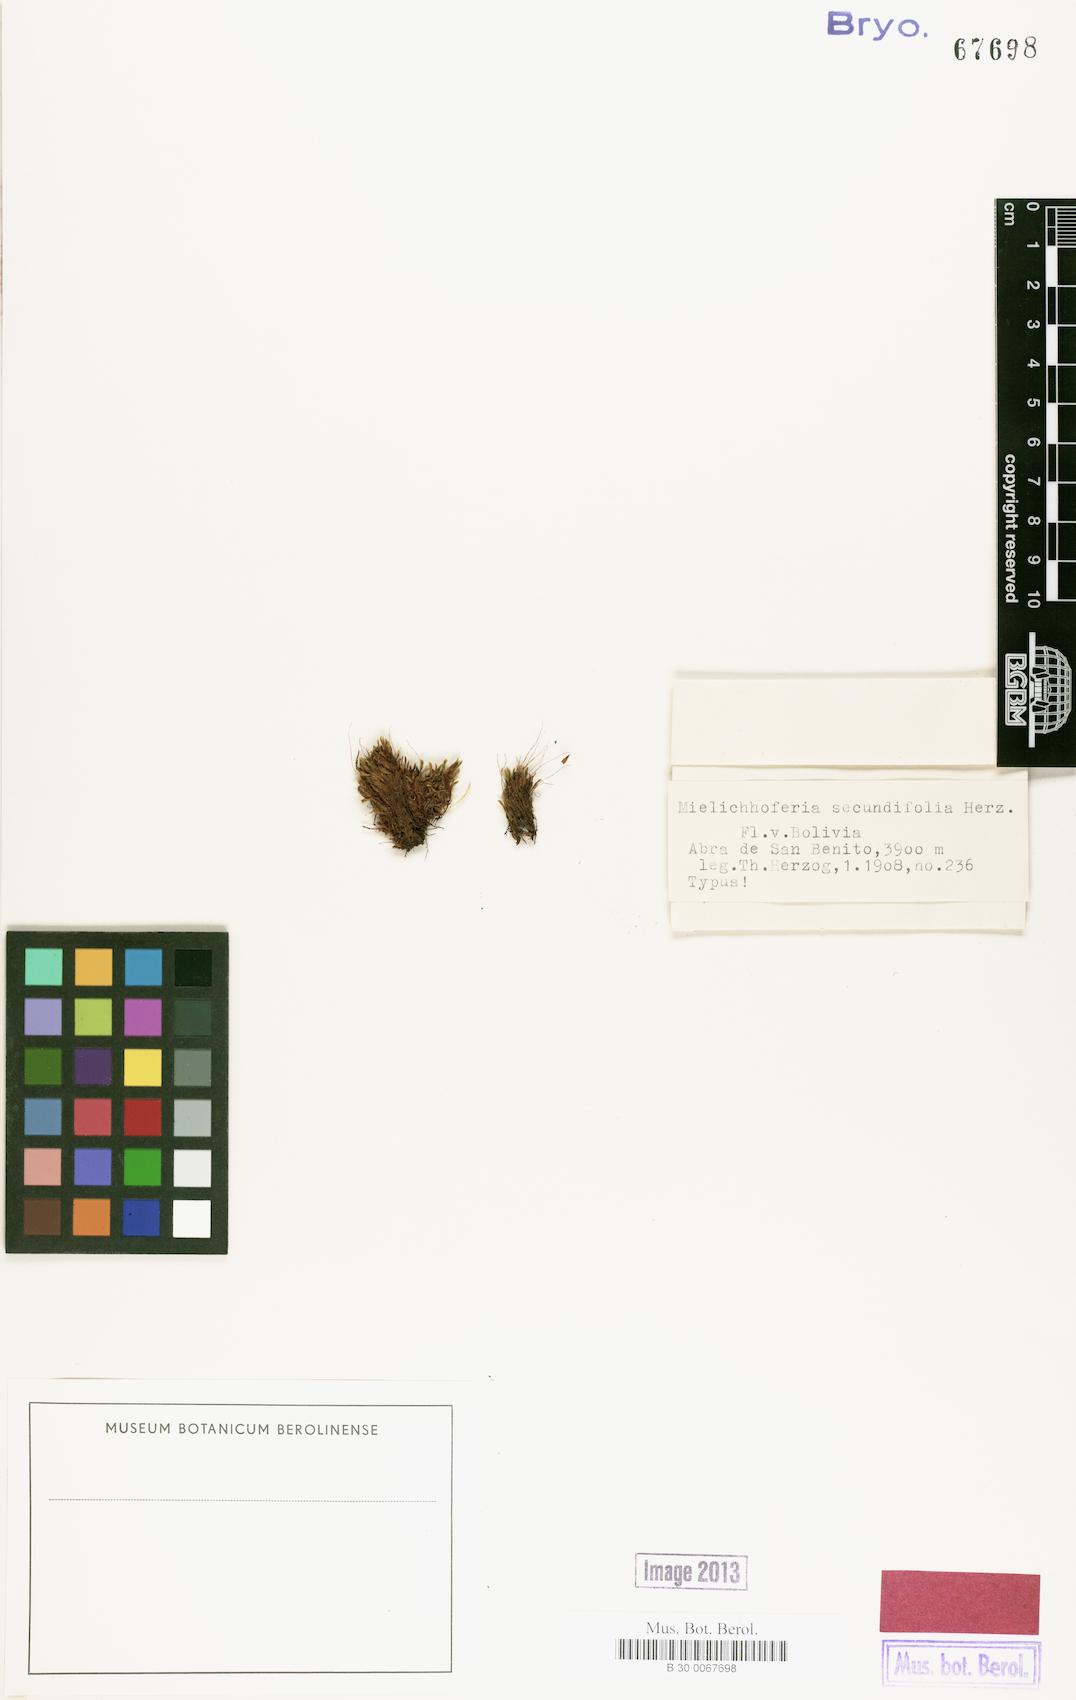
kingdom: Plantae
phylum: Bryophyta
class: Bryopsida
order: Bryales
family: Mniaceae
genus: Mielichhoferia
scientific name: Mielichhoferia secundifolia
